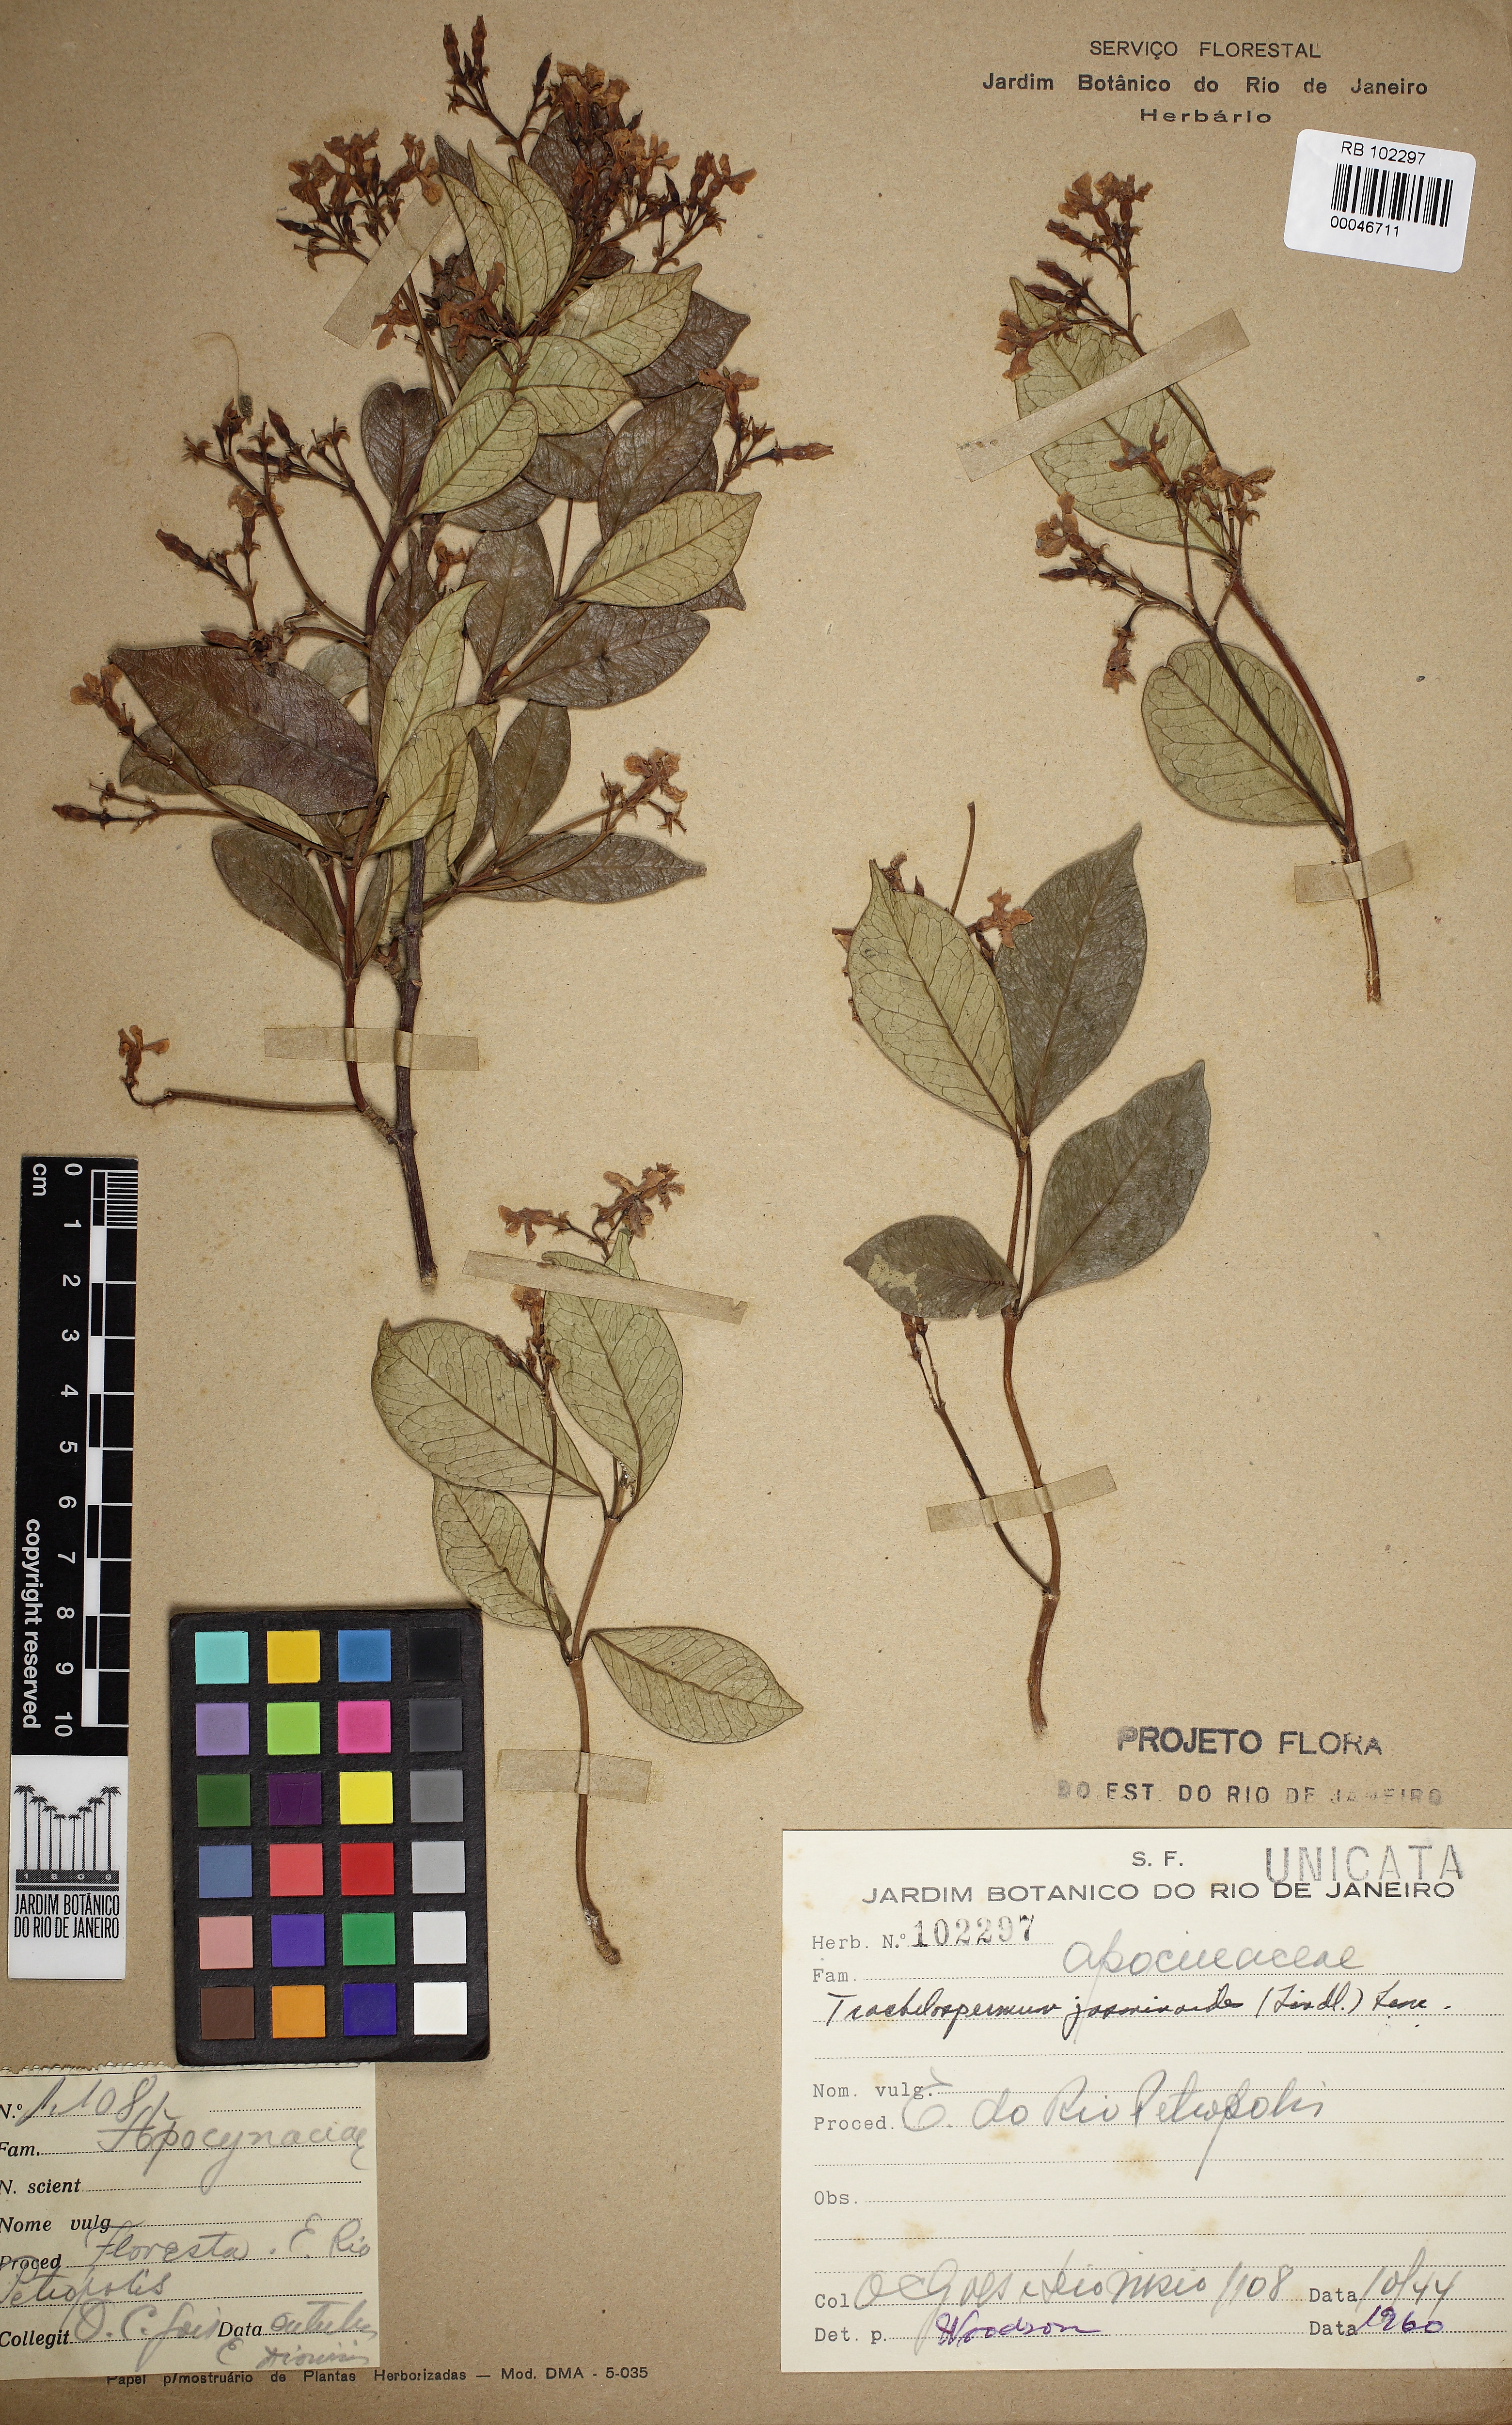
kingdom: Plantae
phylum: Tracheophyta
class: Magnoliopsida
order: Gentianales
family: Apocynaceae
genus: Trachelospermum
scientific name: Trachelospermum jasminoides
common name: Confederate jasmine
